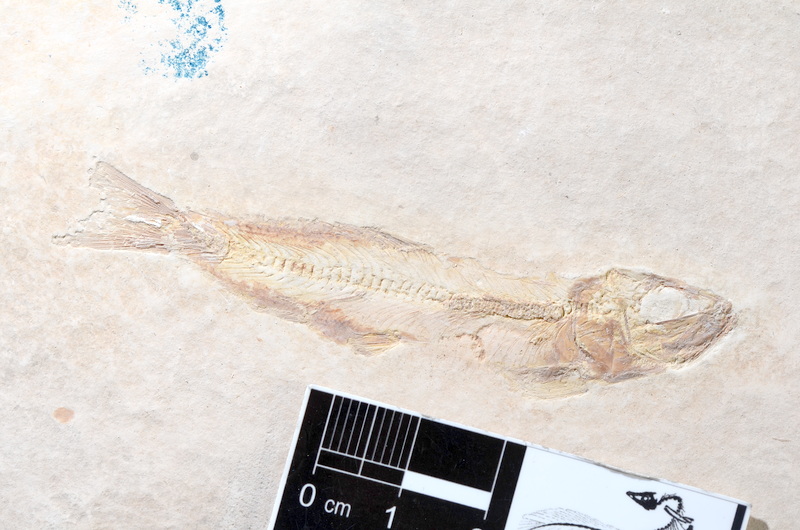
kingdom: Animalia
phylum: Chordata
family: Ascalaboidae
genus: Tharsis
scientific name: Tharsis dubius
